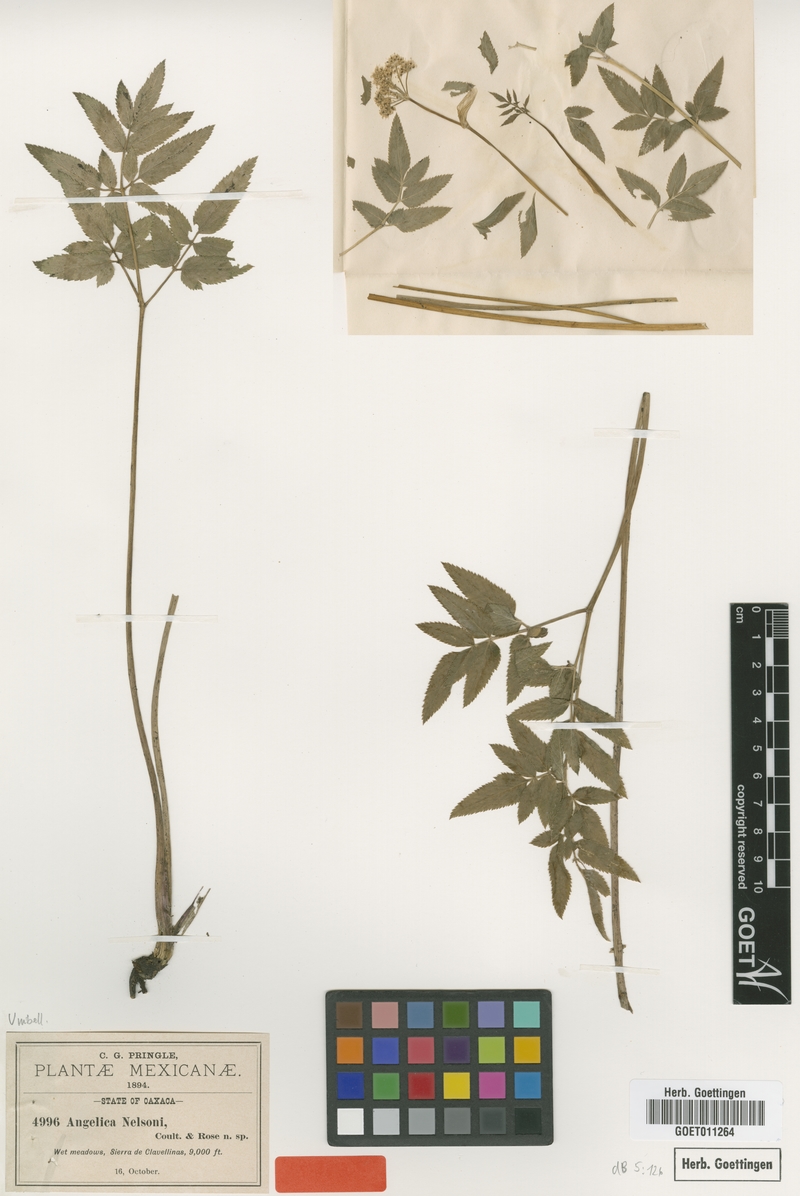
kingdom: Plantae
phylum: Tracheophyta
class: Magnoliopsida
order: Apiales
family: Apiaceae
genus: Angelica
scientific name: Angelica nelsonii
